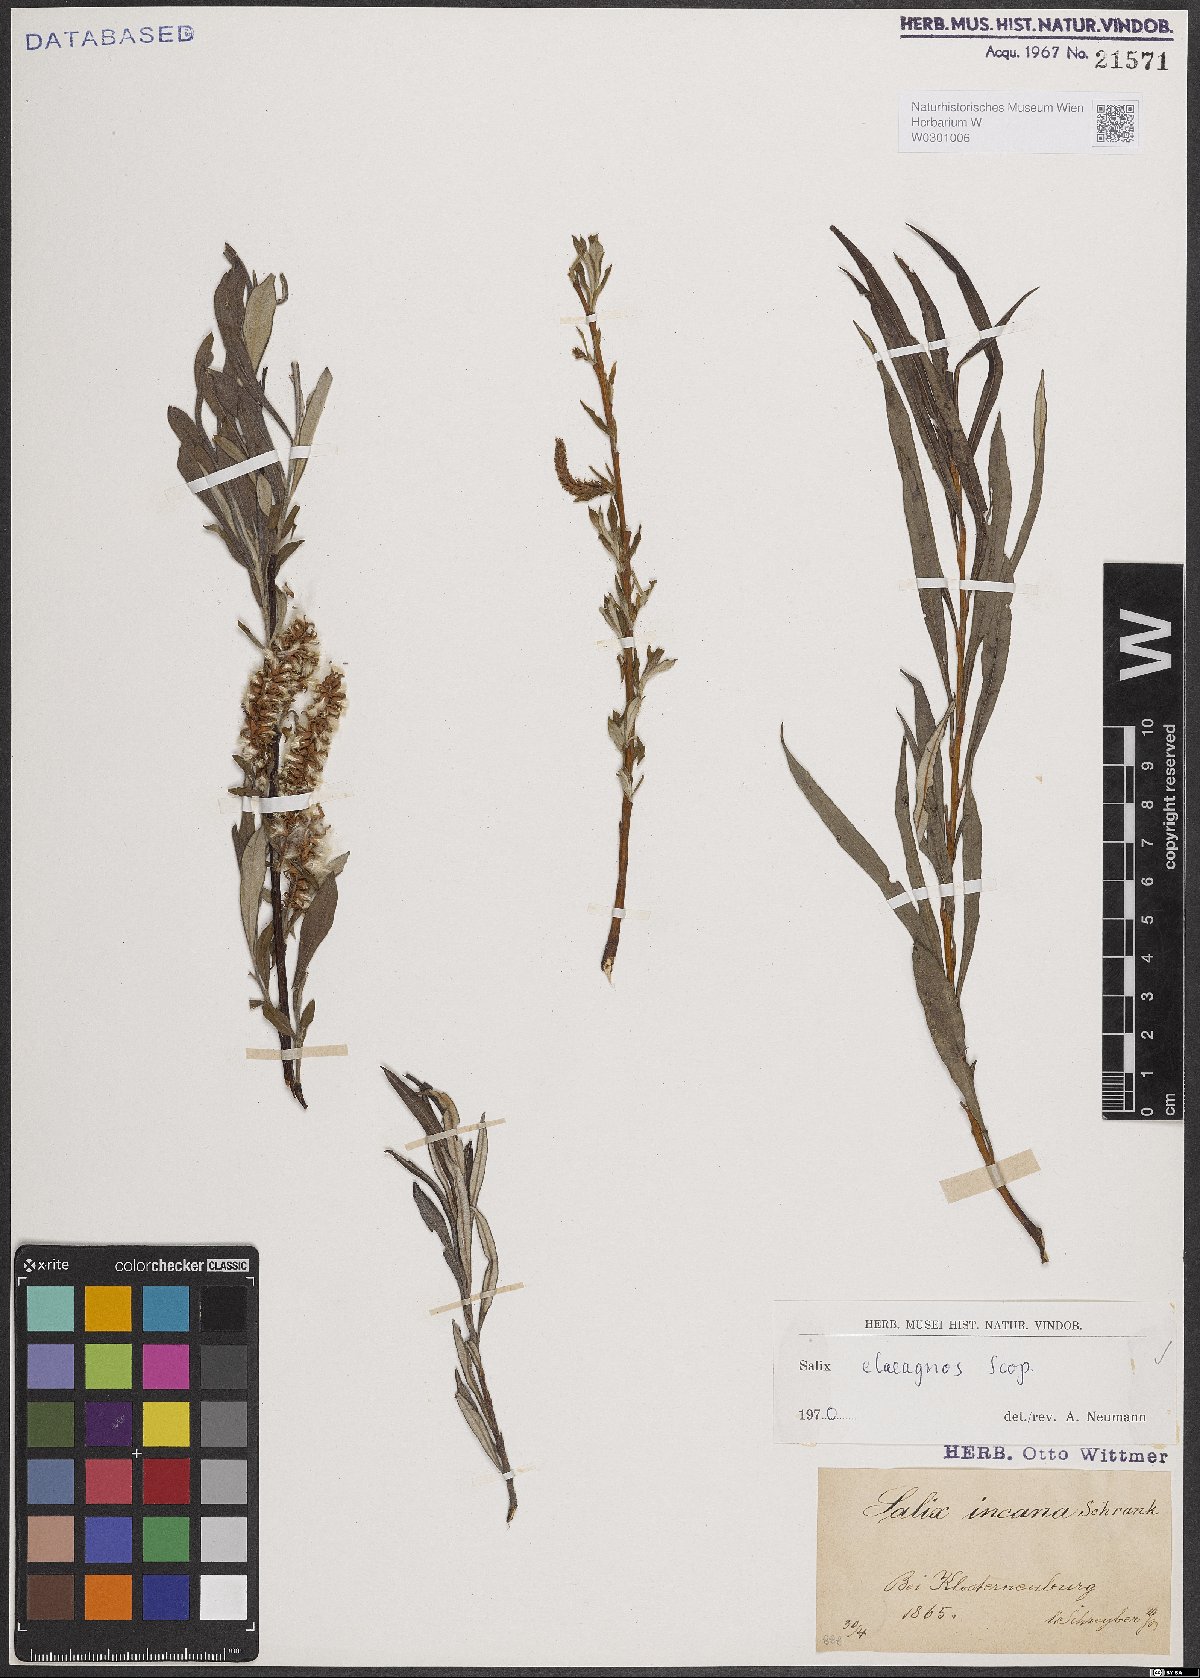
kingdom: Plantae
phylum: Tracheophyta
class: Magnoliopsida
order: Malpighiales
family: Salicaceae
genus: Salix
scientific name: Salix eleagnos
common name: Elaeagnus willow
